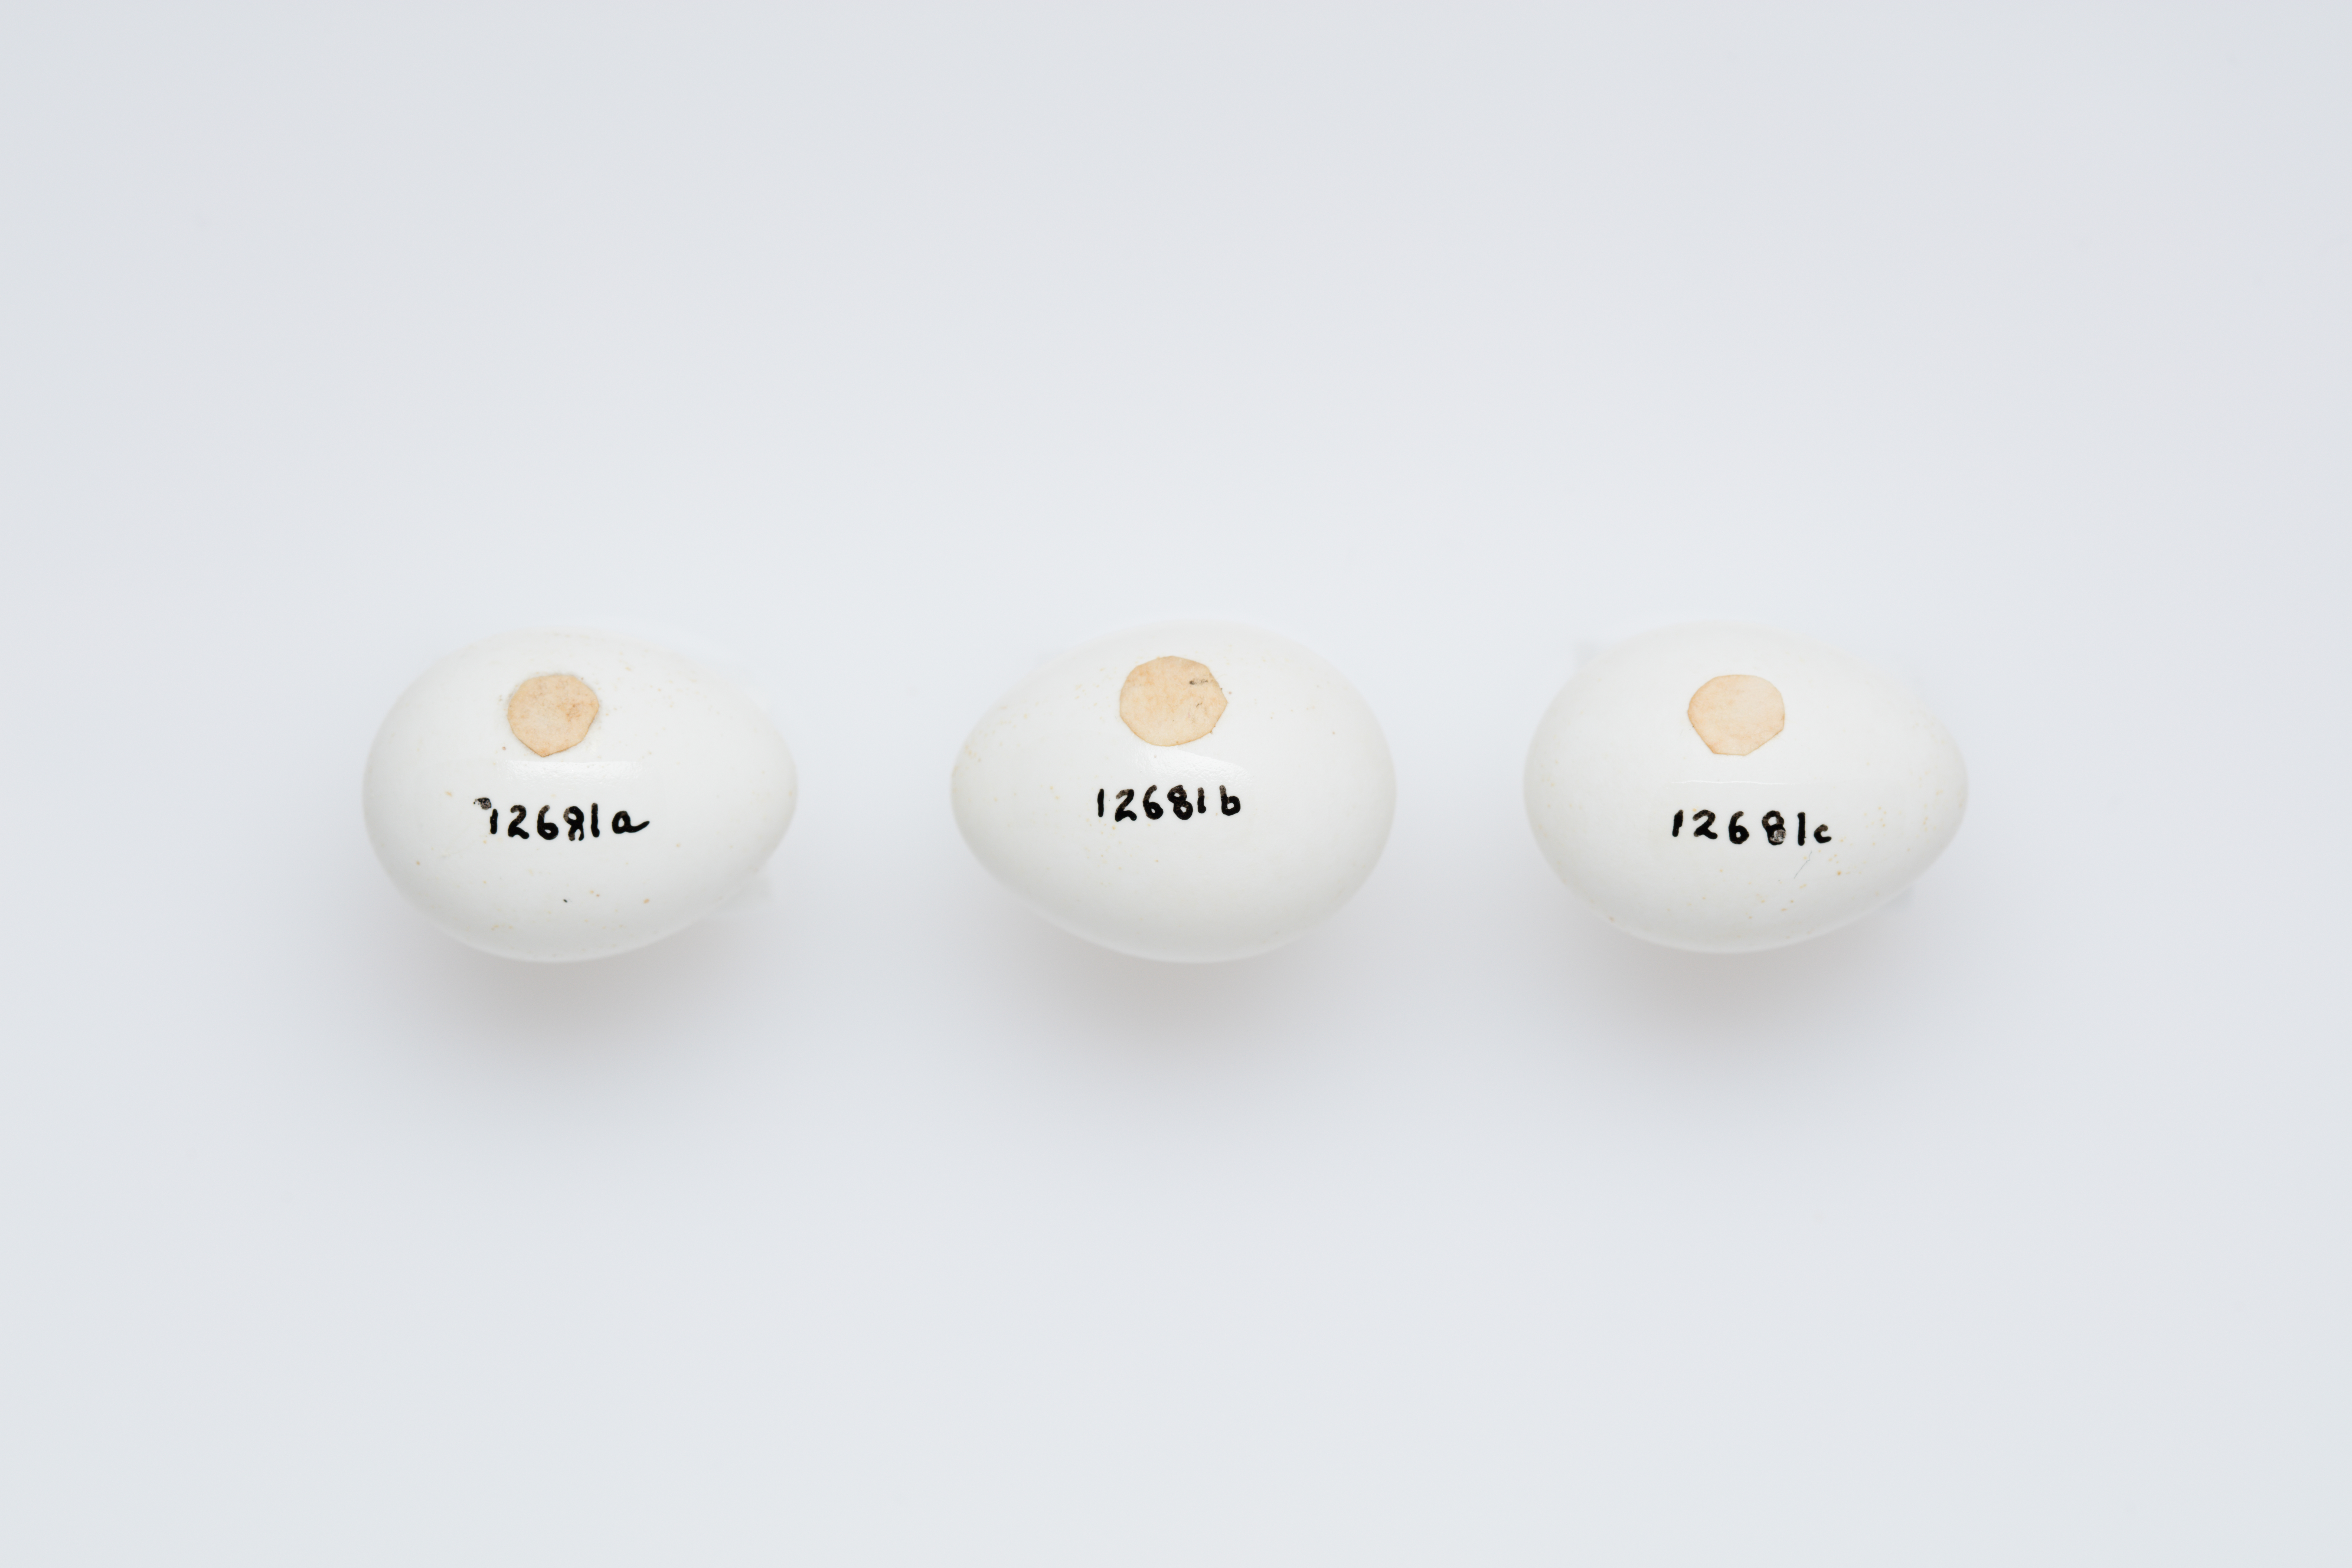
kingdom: Animalia
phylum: Chordata
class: Aves
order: Passeriformes
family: Pardalotidae
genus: Pardalotus
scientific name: Pardalotus punctatus
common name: Spotted pardalote
